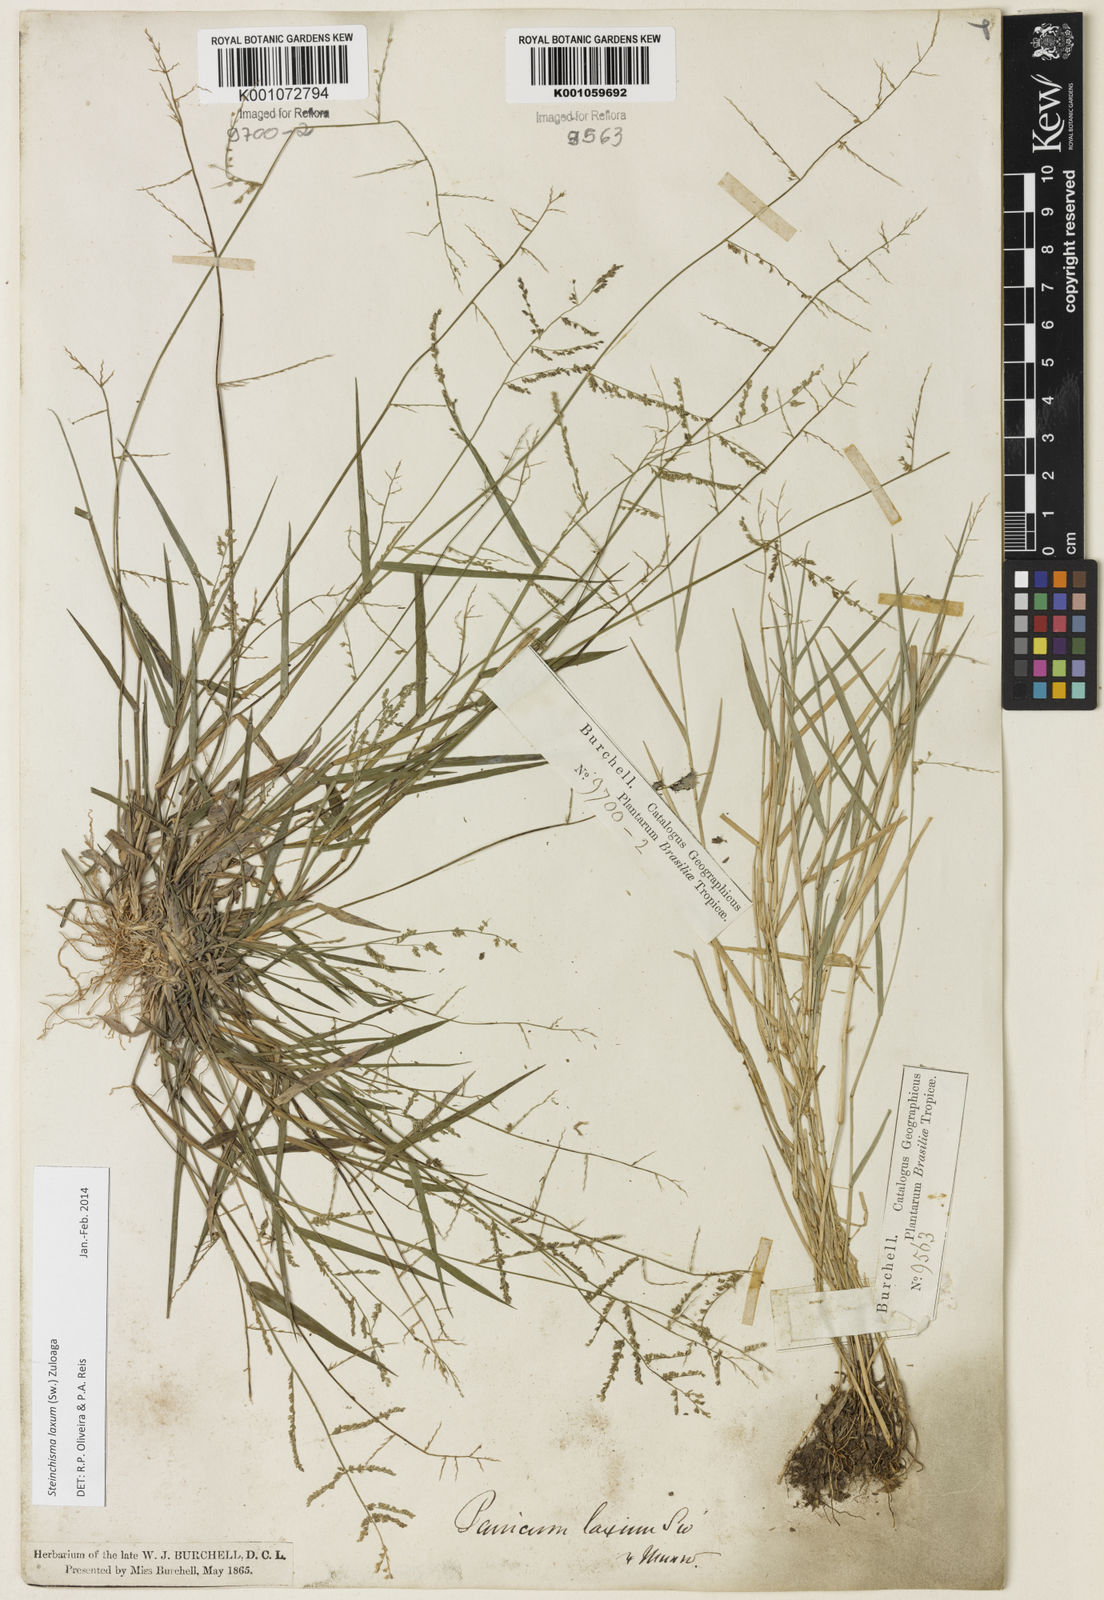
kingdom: Plantae
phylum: Tracheophyta
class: Liliopsida
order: Poales
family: Poaceae
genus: Steinchisma
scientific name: Steinchisma laxum
